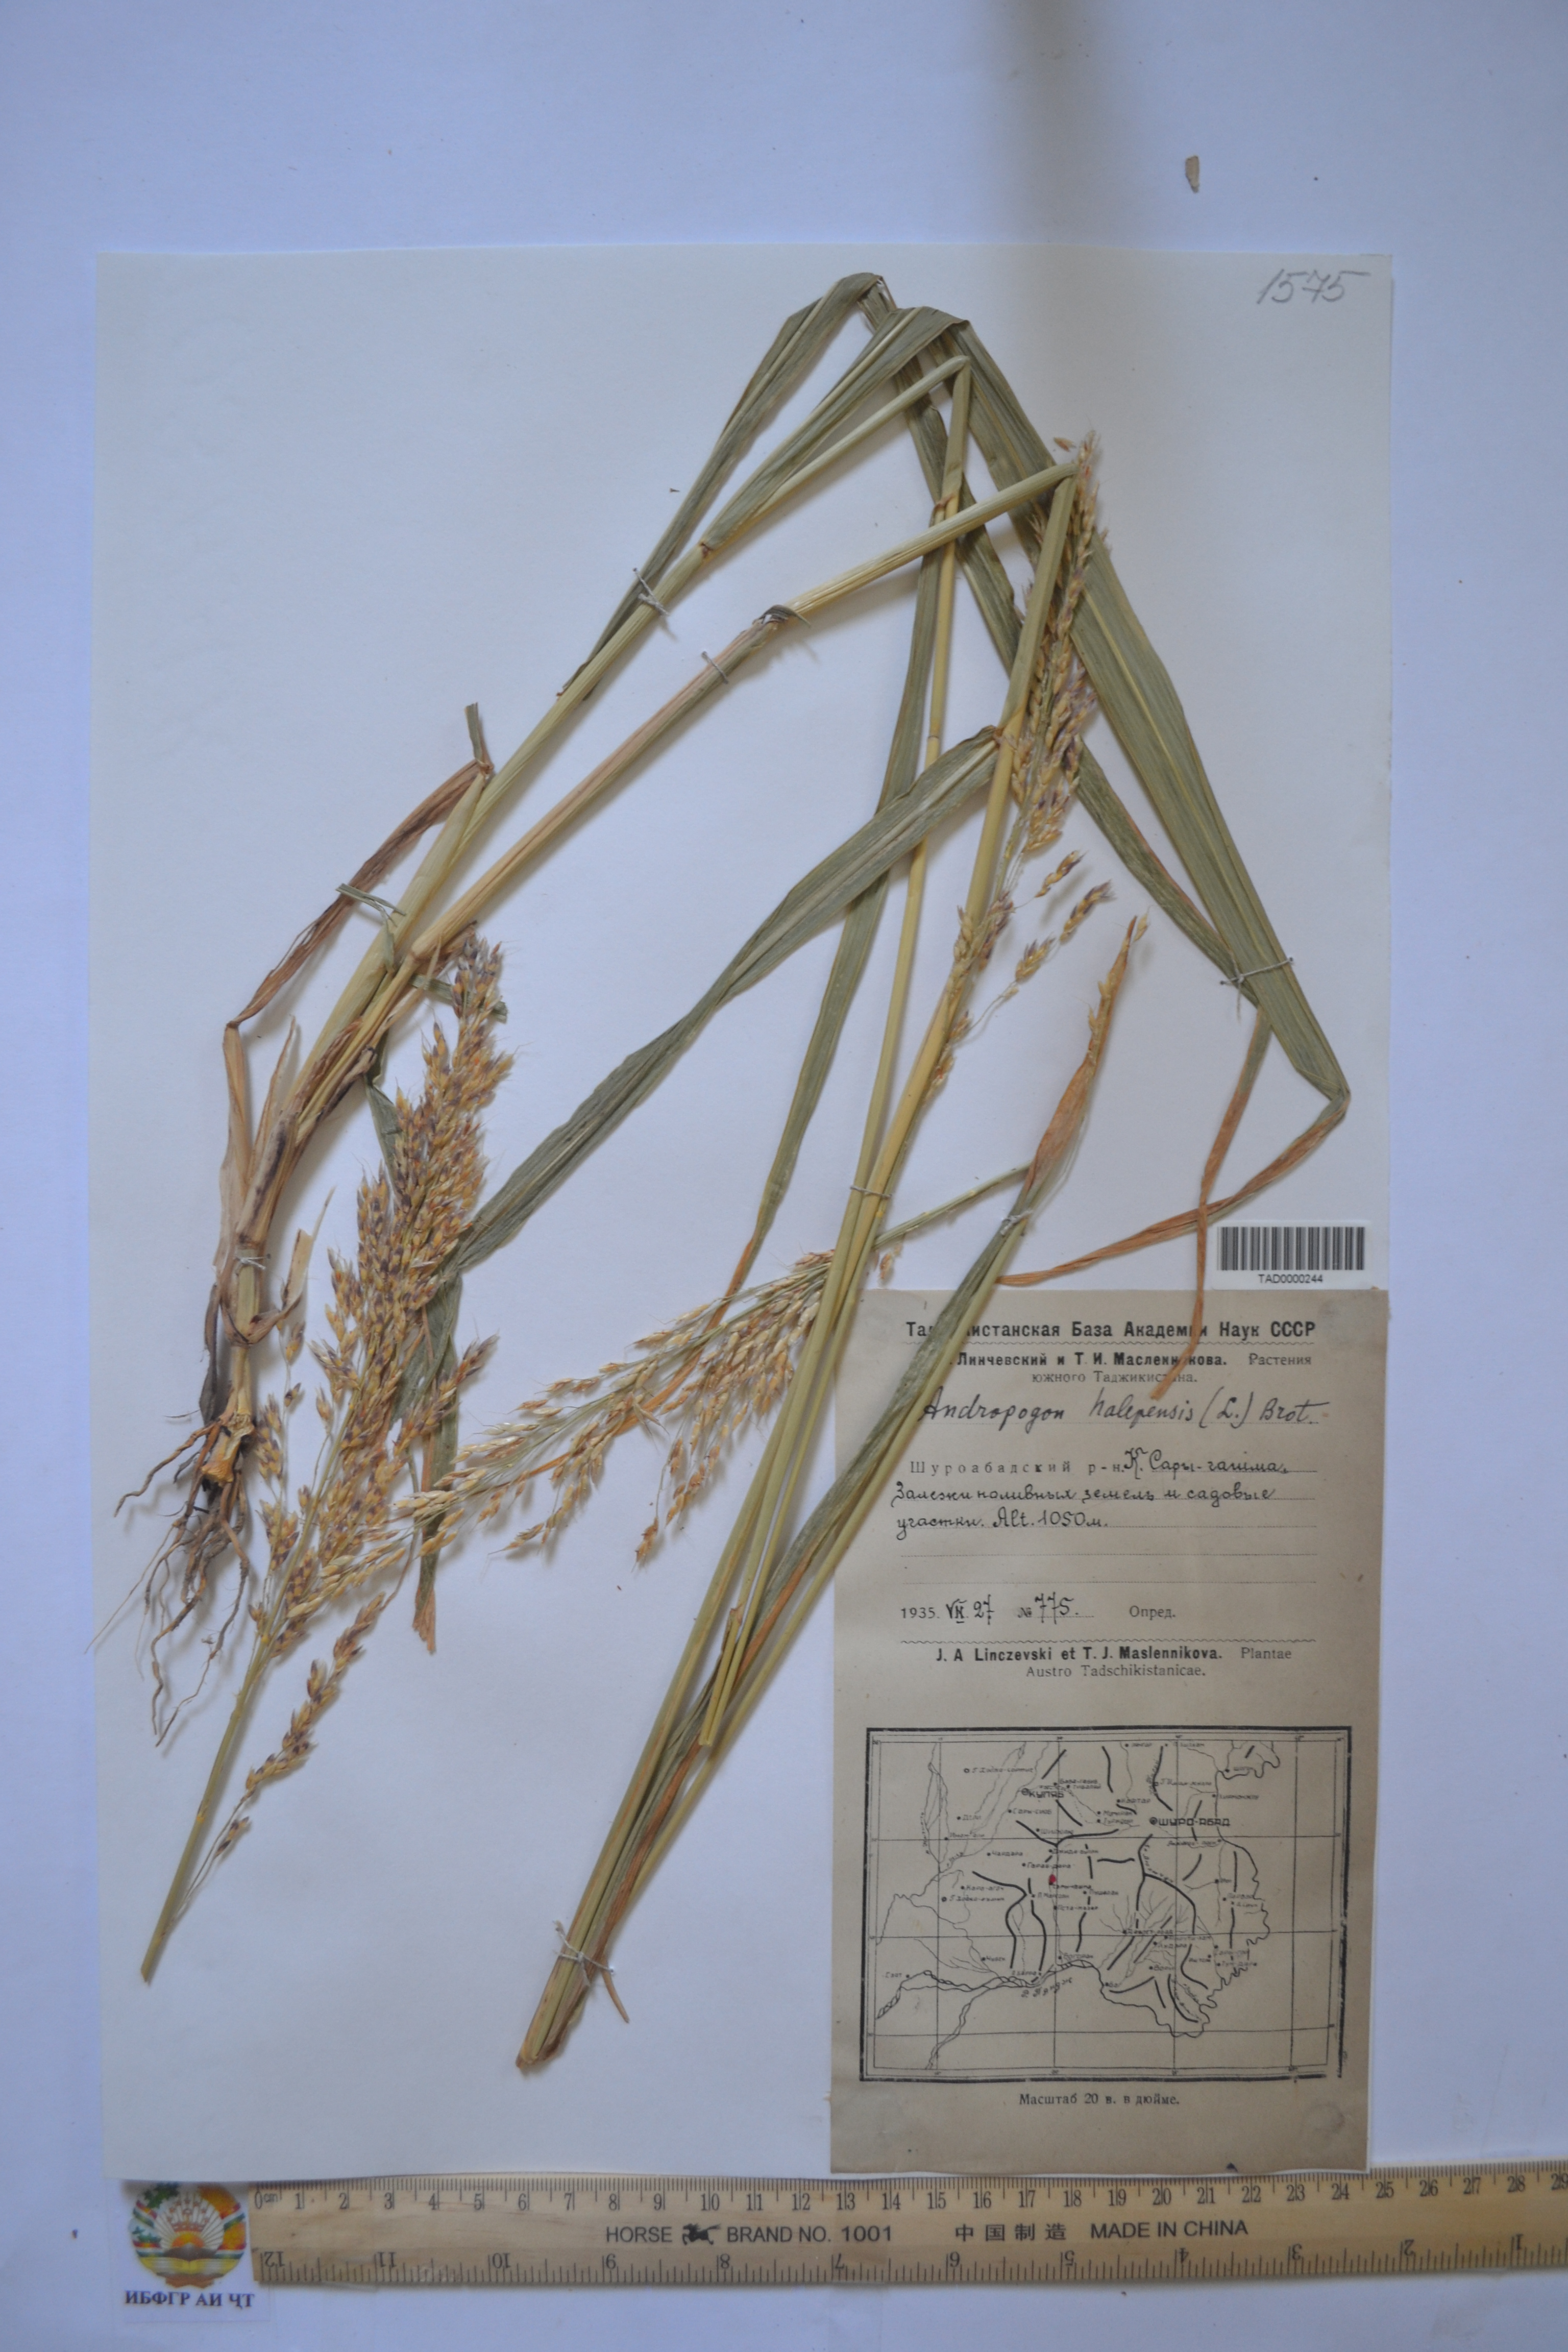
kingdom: Plantae
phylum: Tracheophyta
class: Liliopsida
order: Poales
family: Poaceae
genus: Sorghum
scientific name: Sorghum halepense
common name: Johnson-grass
